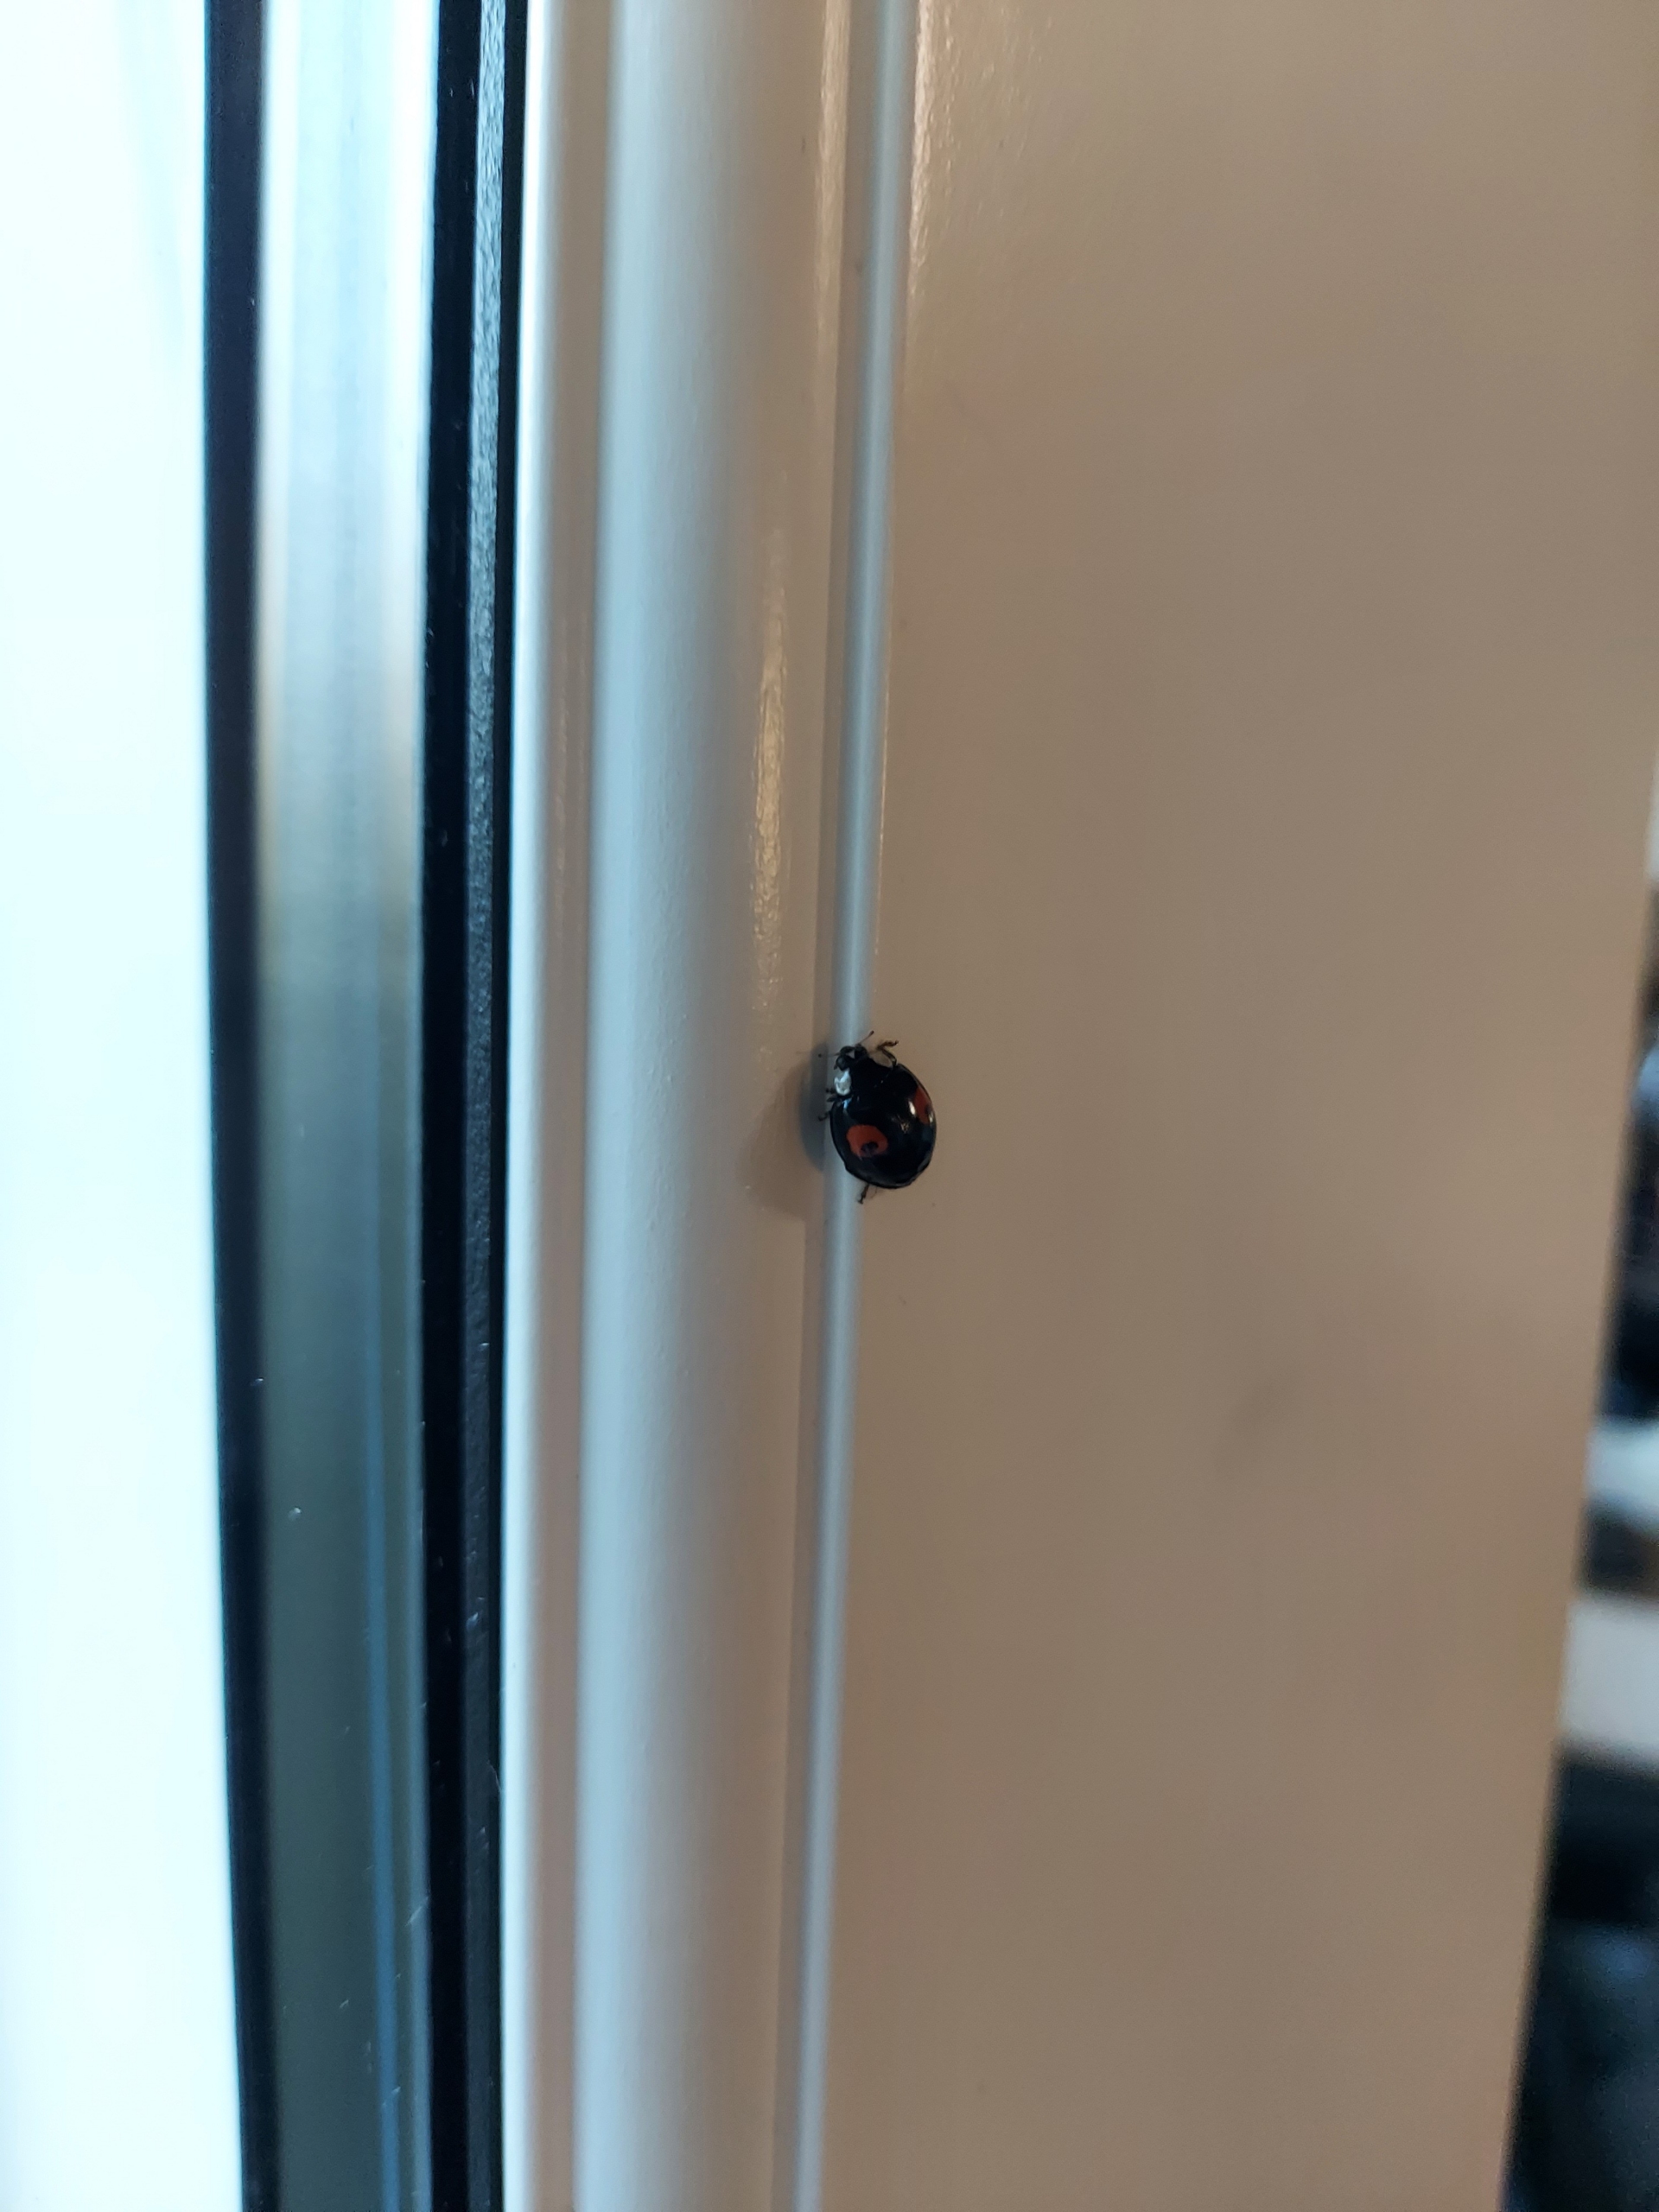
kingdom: Animalia
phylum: Arthropoda
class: Insecta
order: Coleoptera
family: Coccinellidae
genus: Harmonia
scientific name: Harmonia axyridis
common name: Harlekinmariehøne
